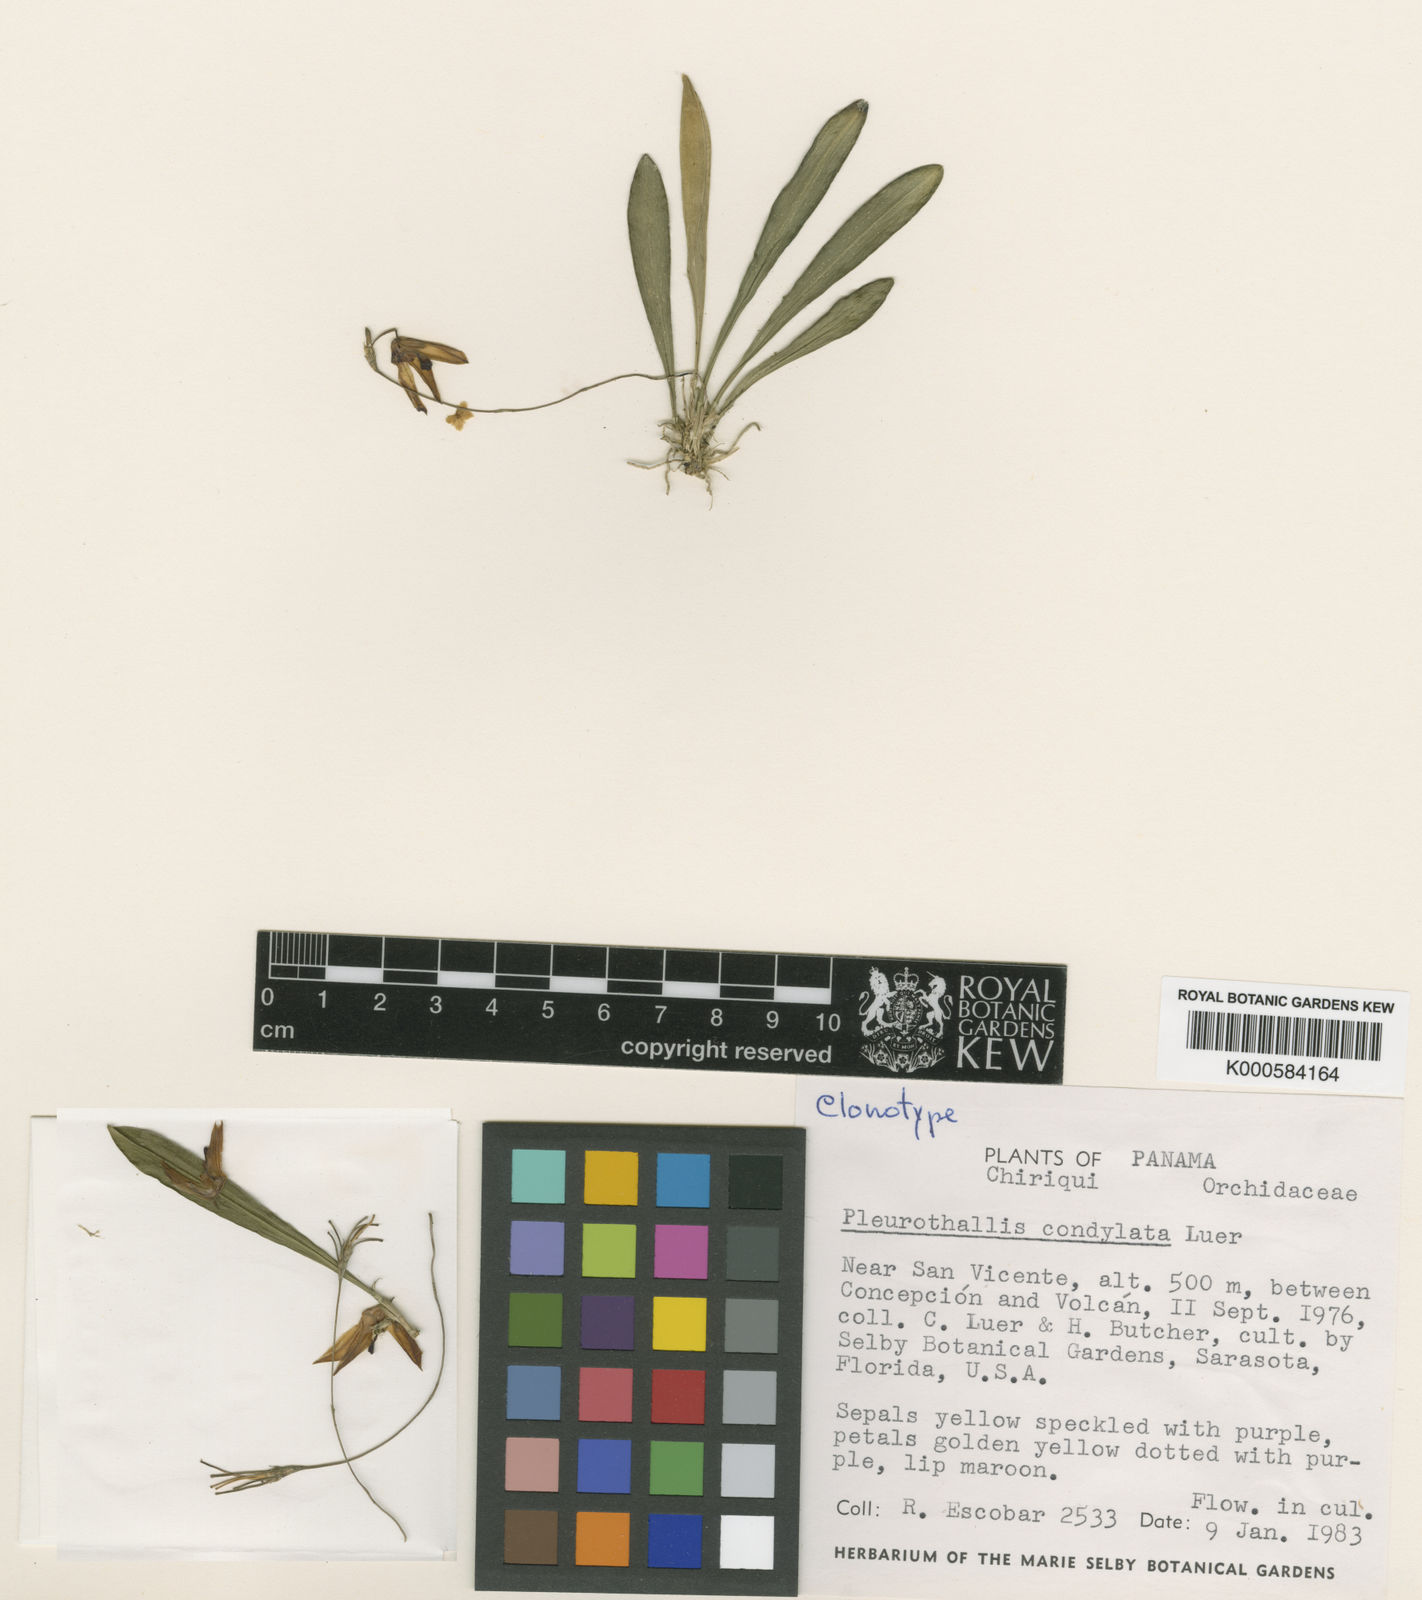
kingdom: Plantae
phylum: Tracheophyta
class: Liliopsida
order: Asparagales
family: Orchidaceae
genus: Specklinia
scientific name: Specklinia condylata
